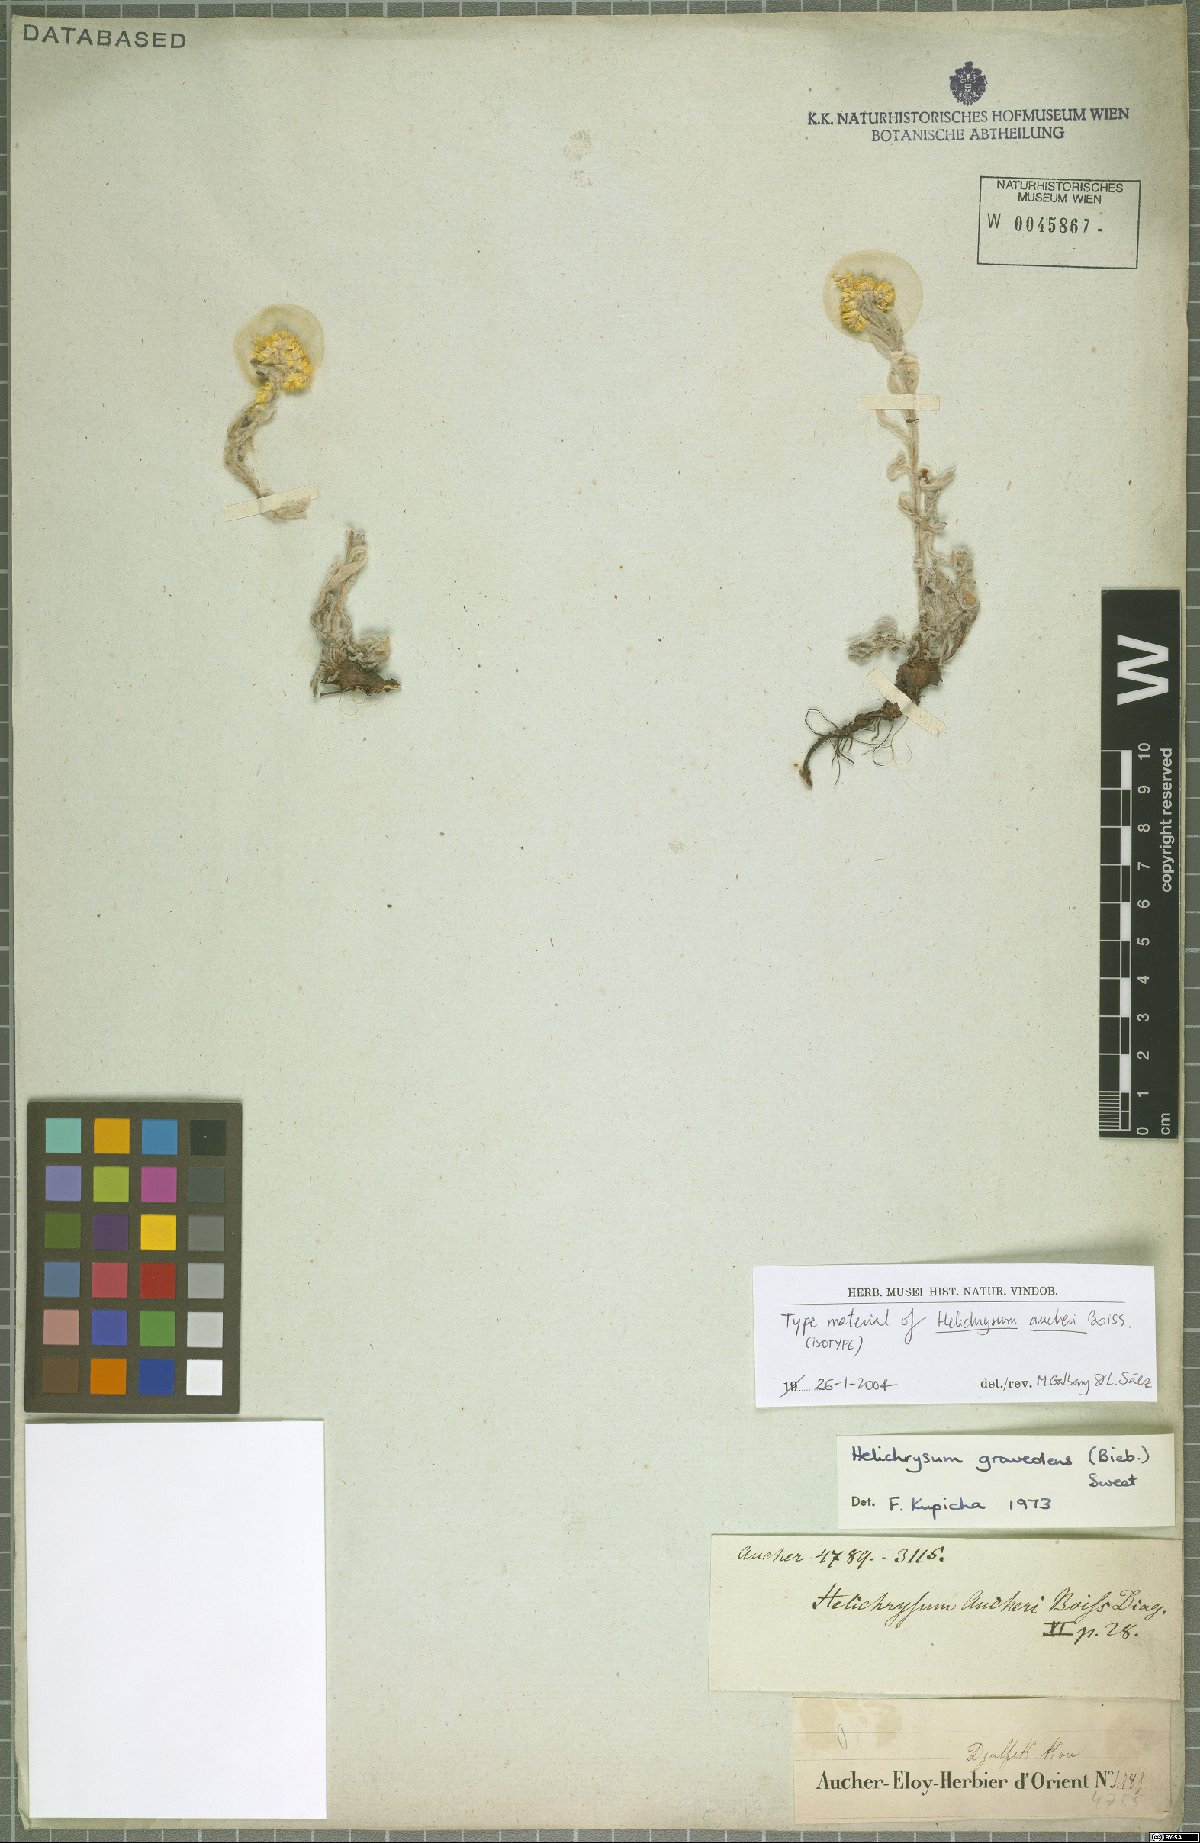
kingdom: Plantae
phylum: Tracheophyta
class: Magnoliopsida
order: Asterales
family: Asteraceae
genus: Helichrysum
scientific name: Helichrysum graveolens
